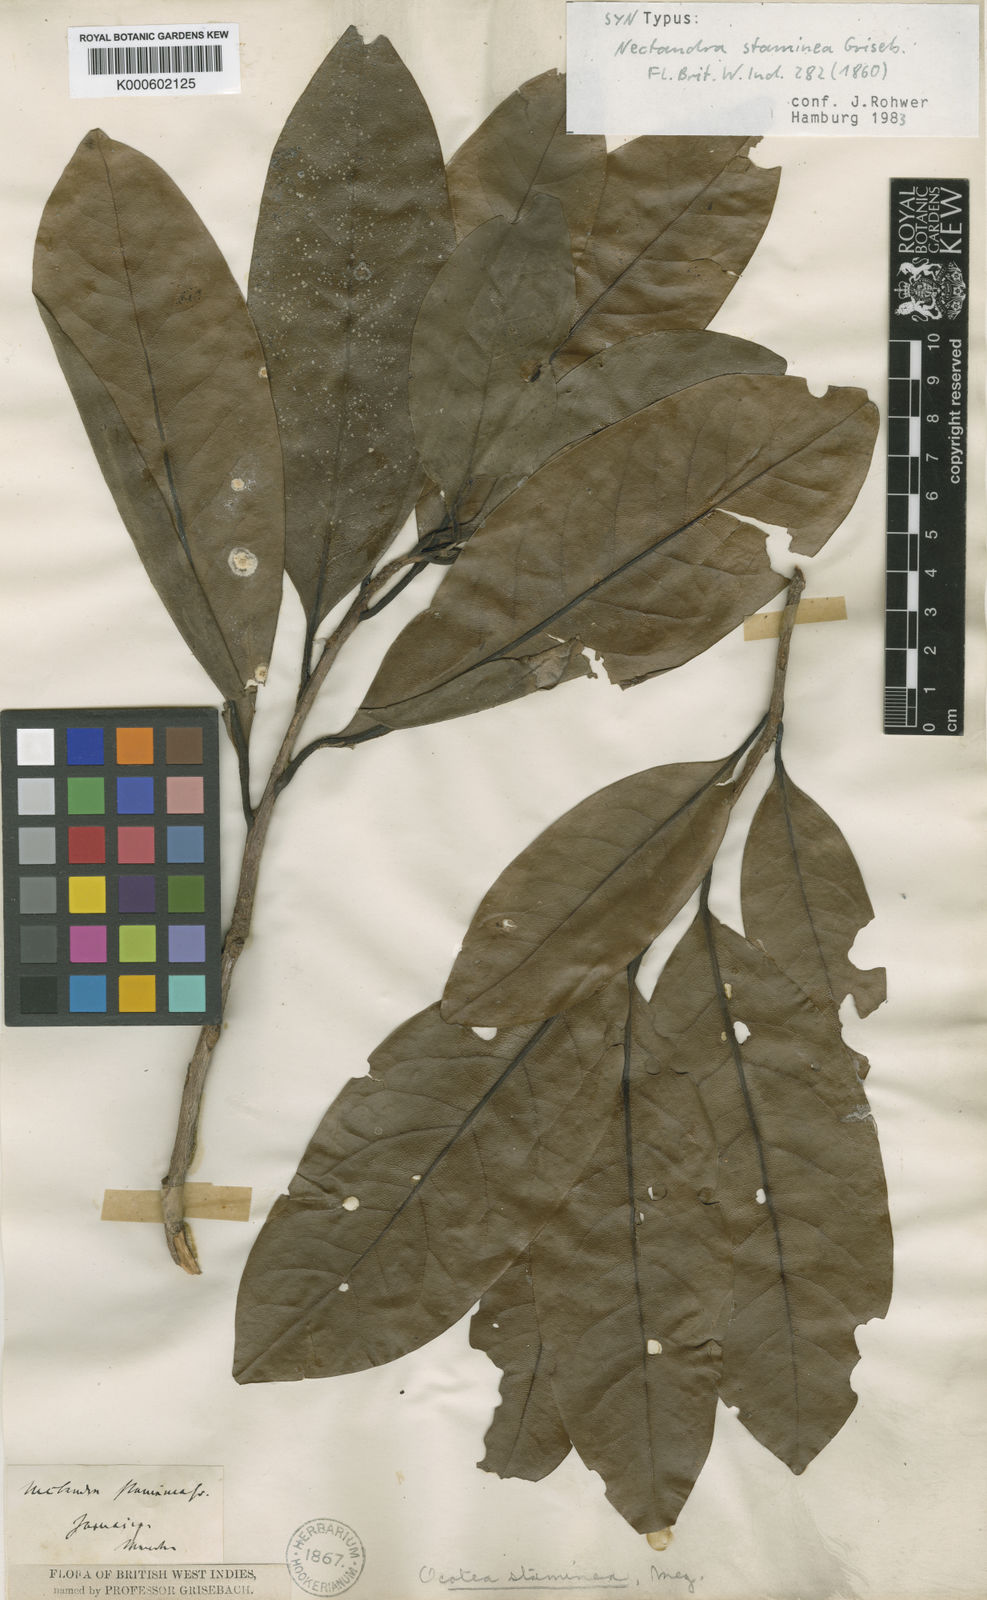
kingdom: Plantae
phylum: Tracheophyta
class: Magnoliopsida
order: Laurales
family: Lauraceae
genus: Mespilodaphne
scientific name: Mespilodaphne staminea
